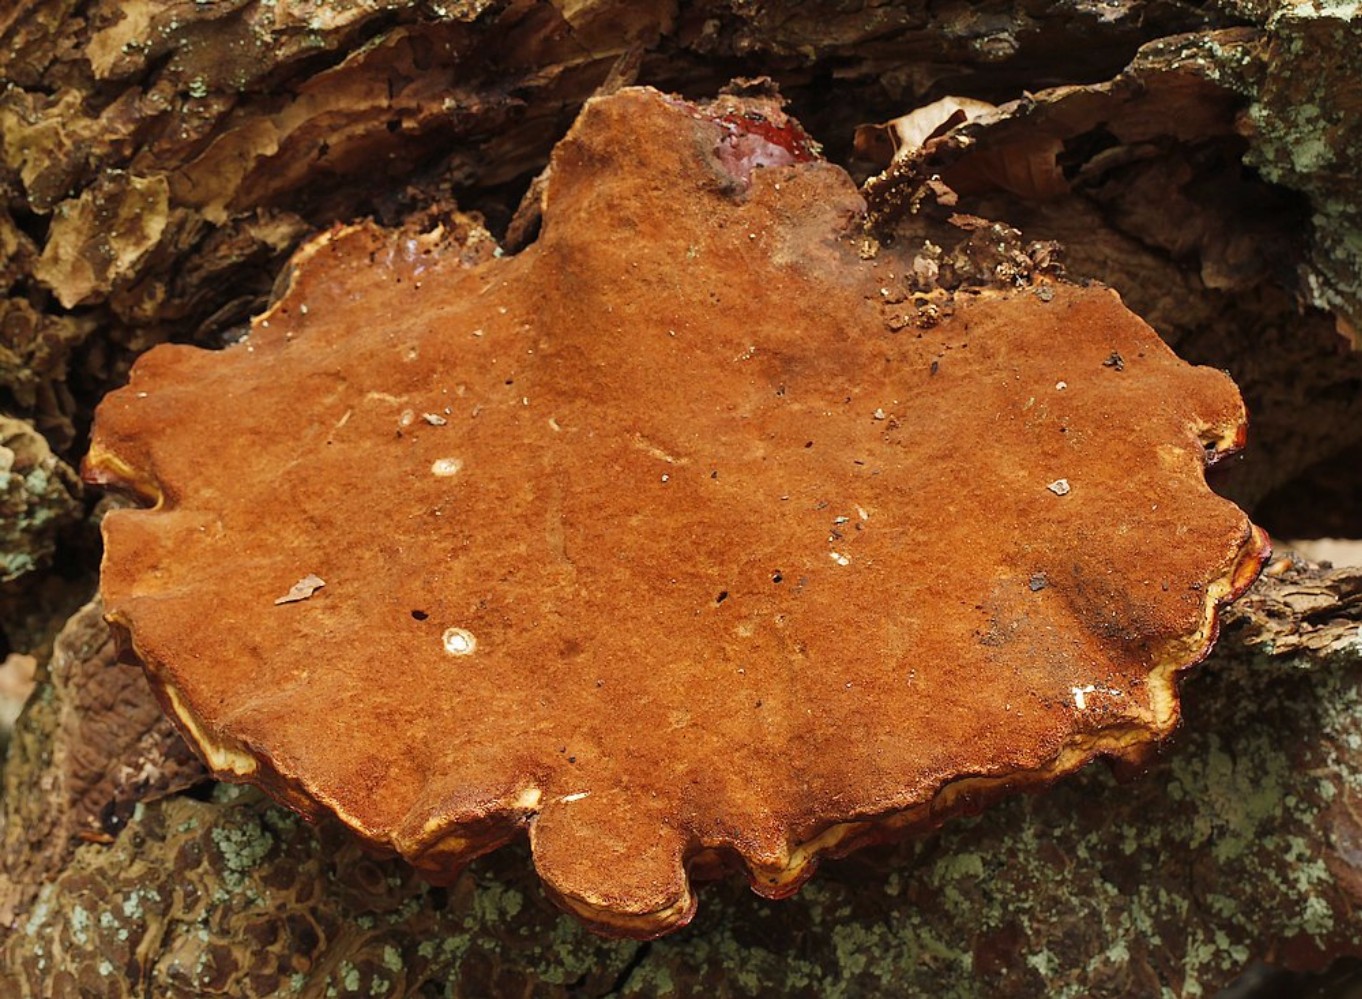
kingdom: Fungi
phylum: Basidiomycota
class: Agaricomycetes
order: Polyporales
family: Polyporaceae
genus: Ganoderma
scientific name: Ganoderma lucidum
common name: skinnende lakporesvamp
